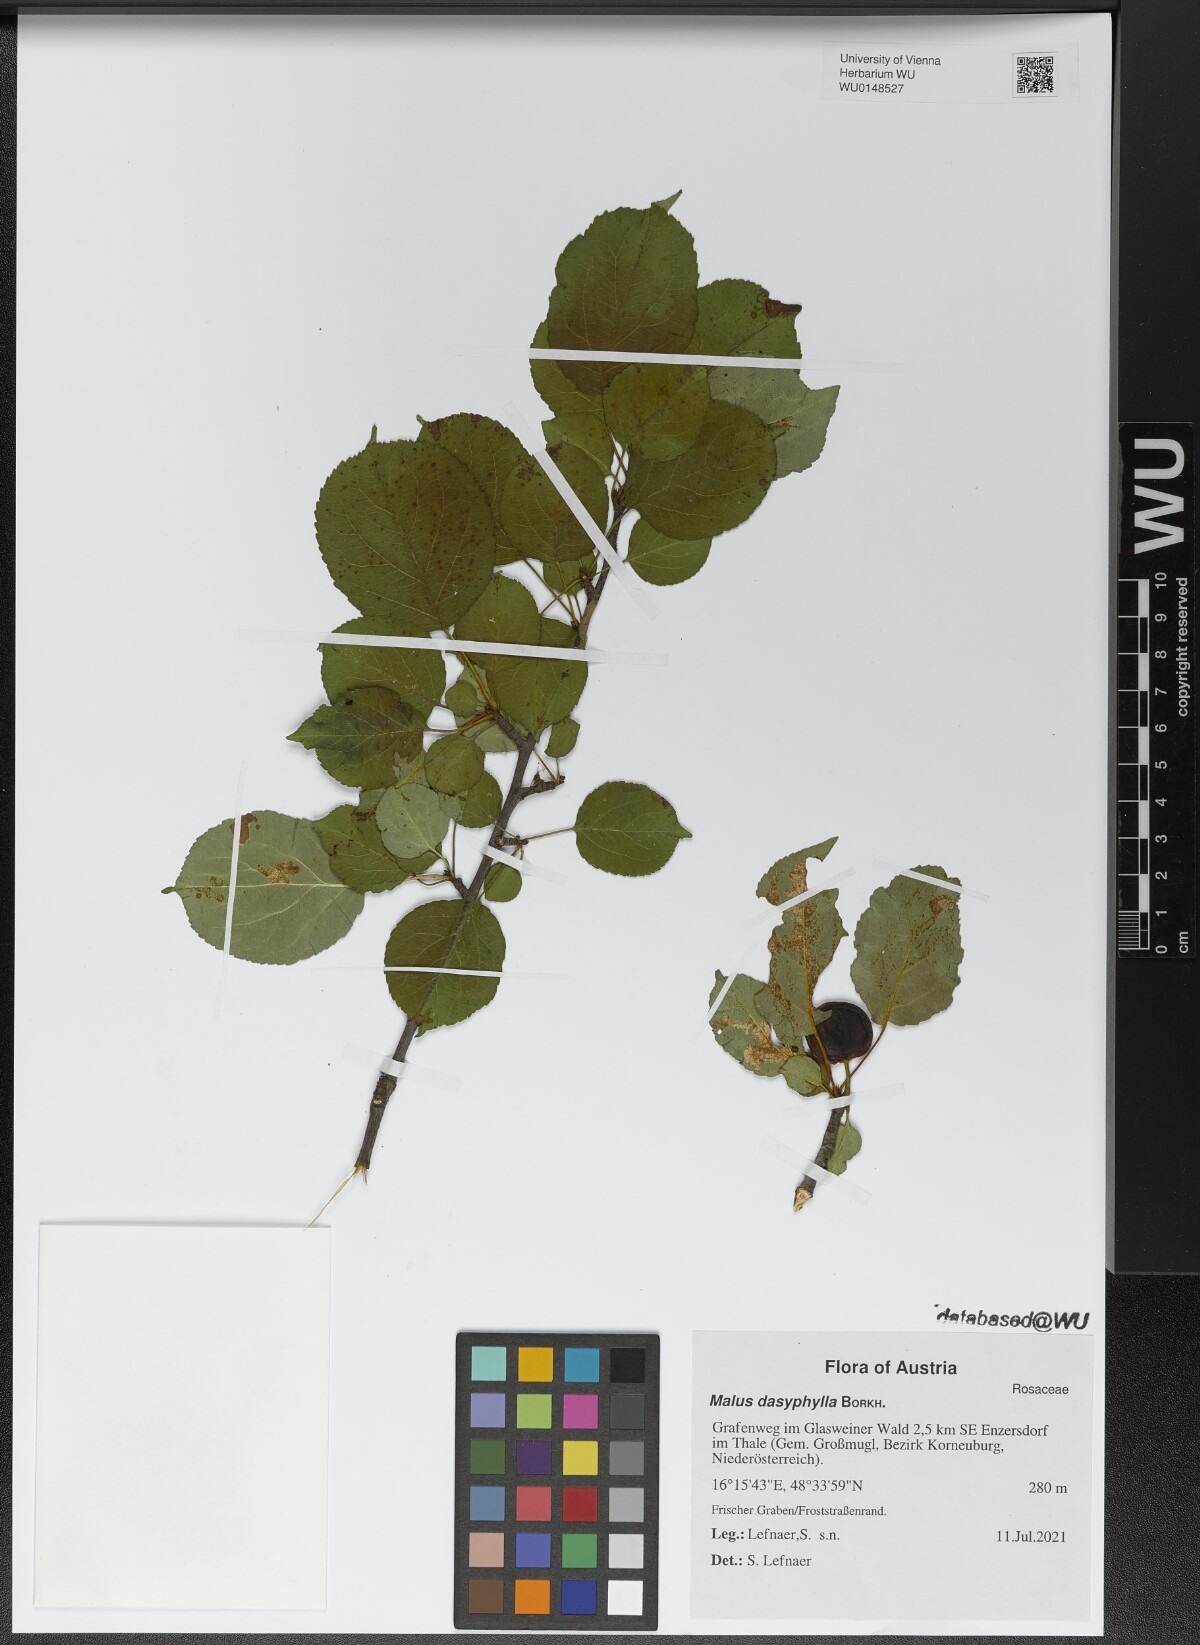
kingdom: Plantae
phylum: Tracheophyta
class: Magnoliopsida
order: Rosales
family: Rosaceae
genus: Malus
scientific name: Malus dasyphylla
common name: Paradise apple
